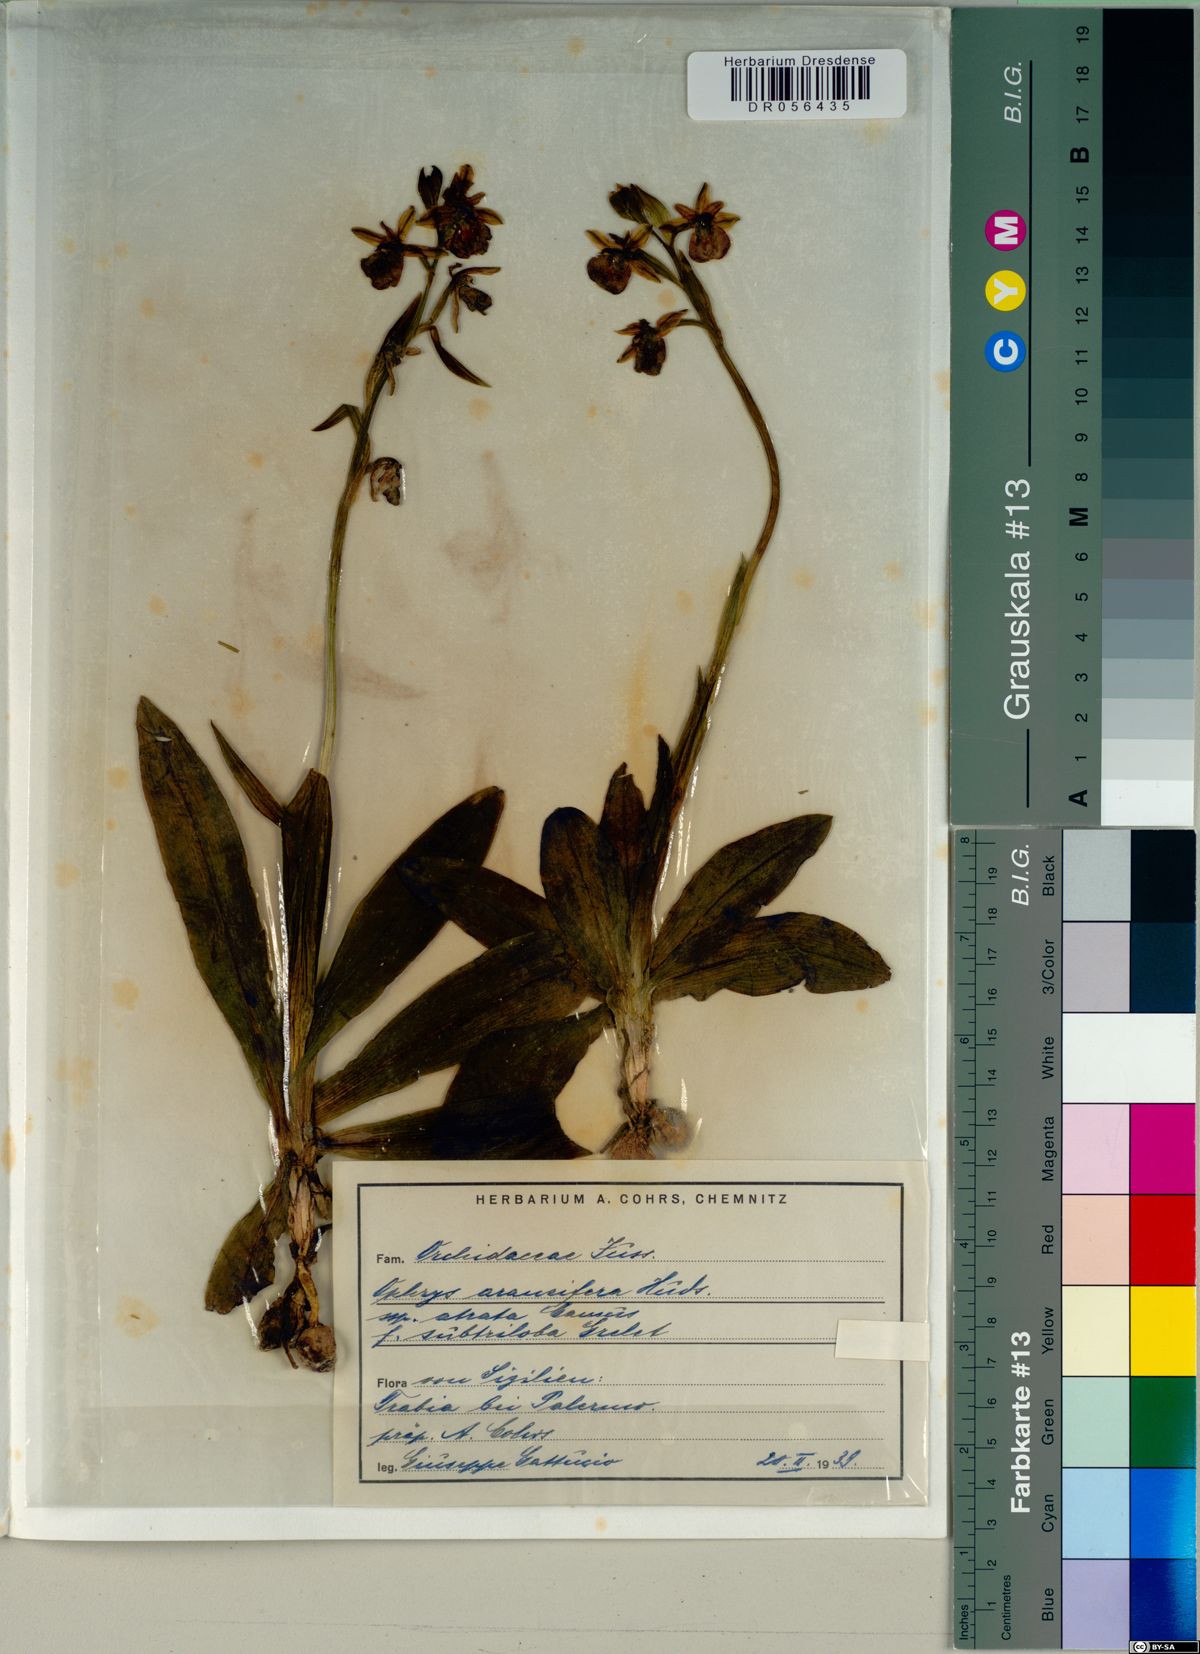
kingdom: Plantae
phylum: Tracheophyta
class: Liliopsida
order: Asparagales
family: Orchidaceae
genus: Ophrys
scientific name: Ophrys sphegodes
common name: Early spider-orchid
